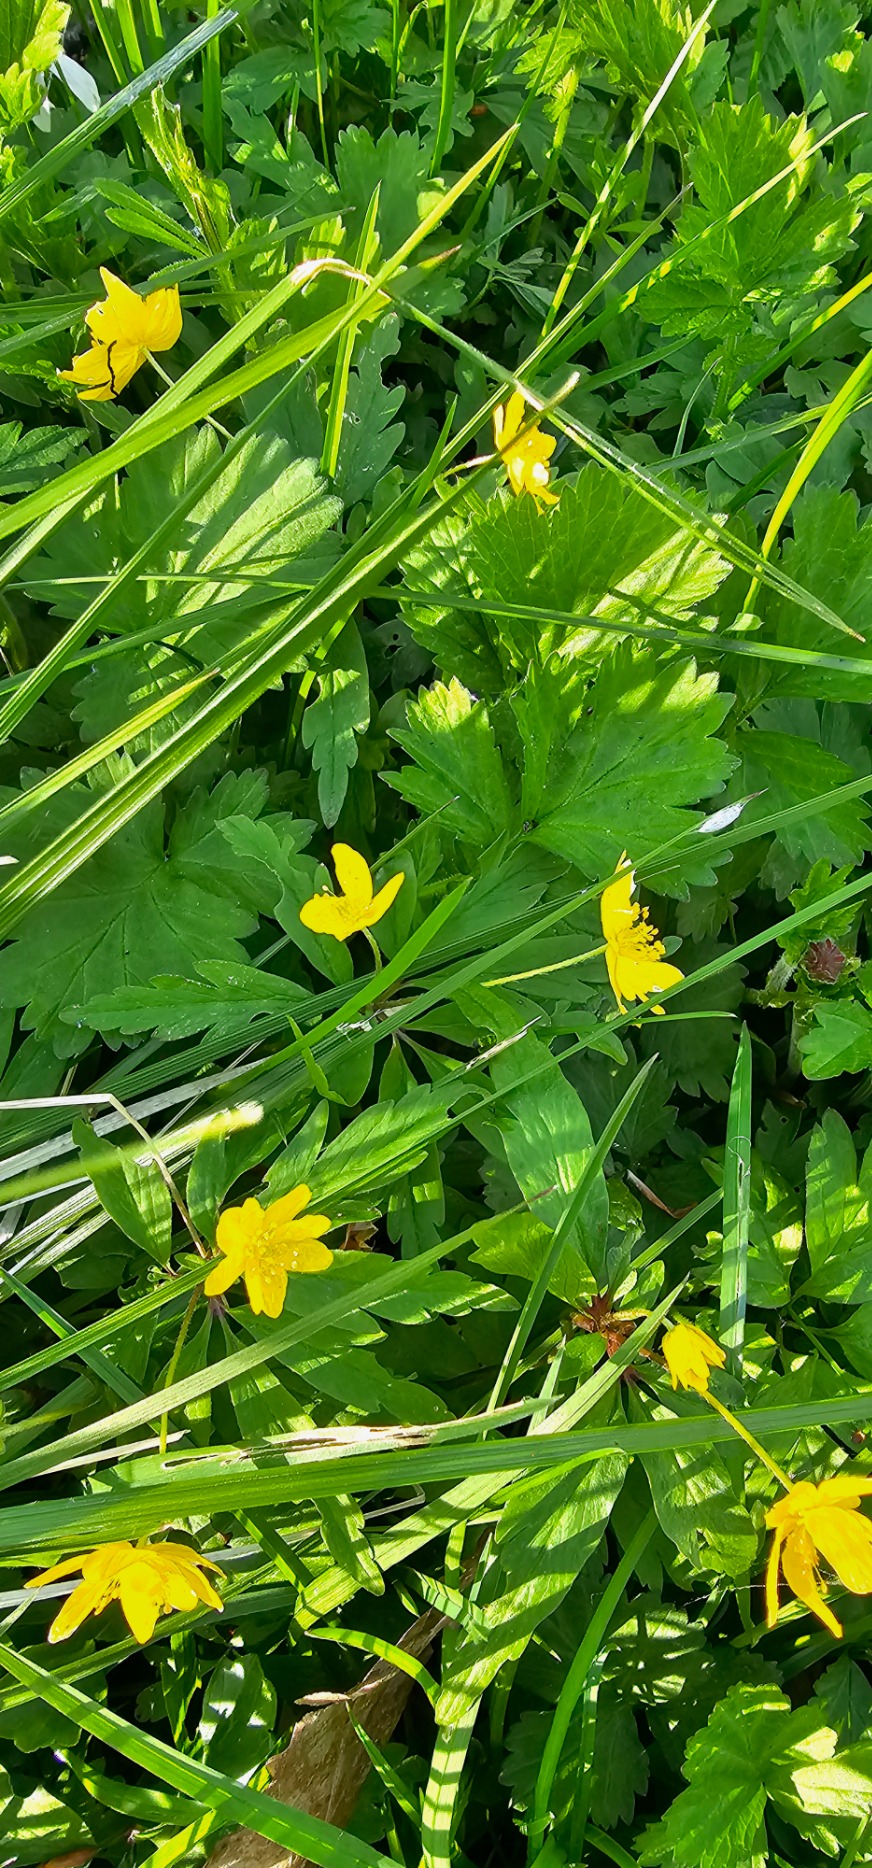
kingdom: Plantae
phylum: Tracheophyta
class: Magnoliopsida
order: Ranunculales
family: Ranunculaceae
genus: Anemone
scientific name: Anemone ranunculoides
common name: Gul anemone
